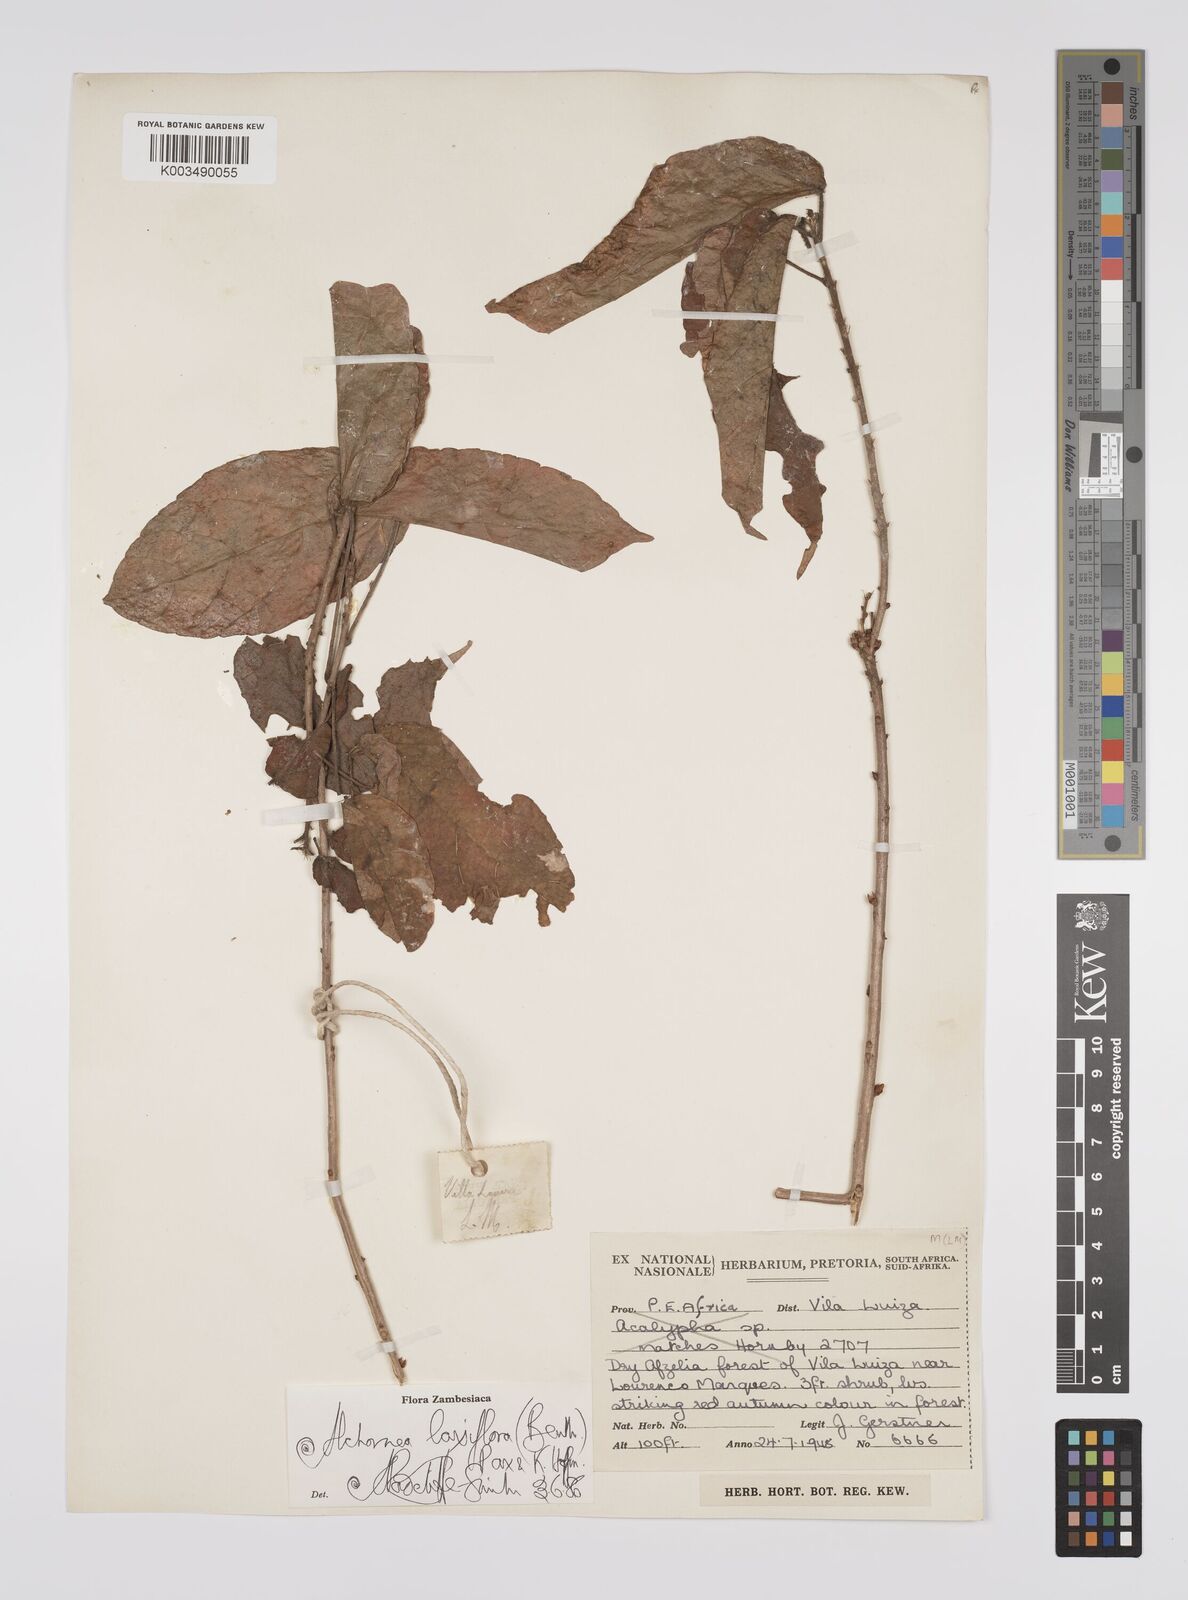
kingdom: Plantae
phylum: Tracheophyta
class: Magnoliopsida
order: Malpighiales
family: Euphorbiaceae
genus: Alchornea
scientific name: Alchornea laxiflora
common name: Lowveld bead-string
